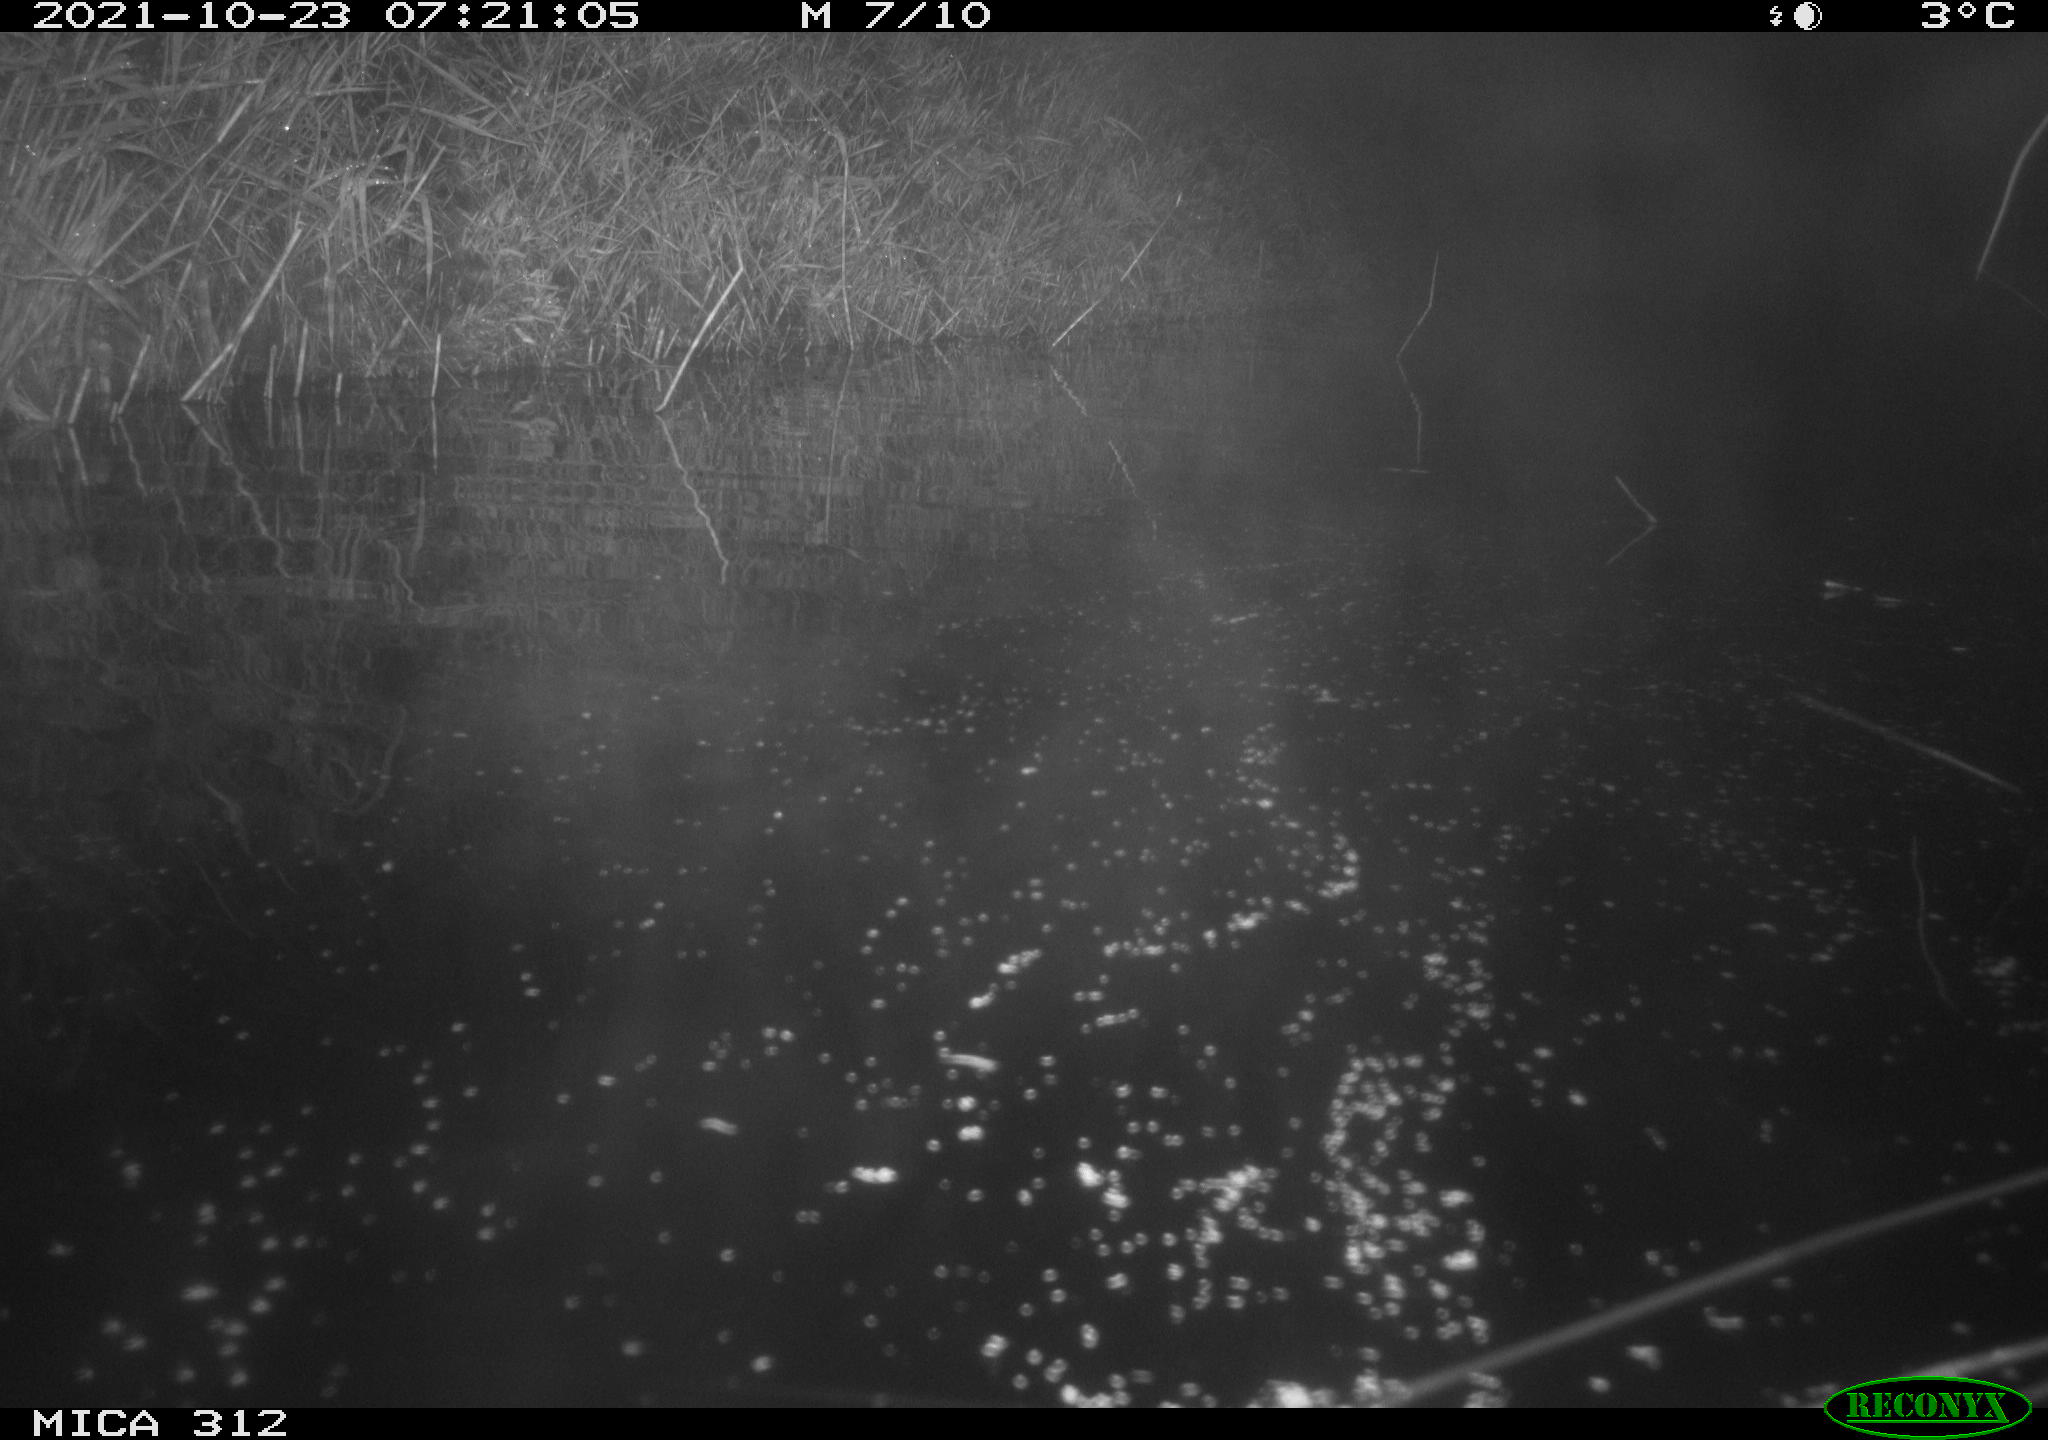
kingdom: Animalia
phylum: Chordata
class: Mammalia
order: Rodentia
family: Muridae
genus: Rattus
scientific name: Rattus norvegicus
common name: Brown rat
